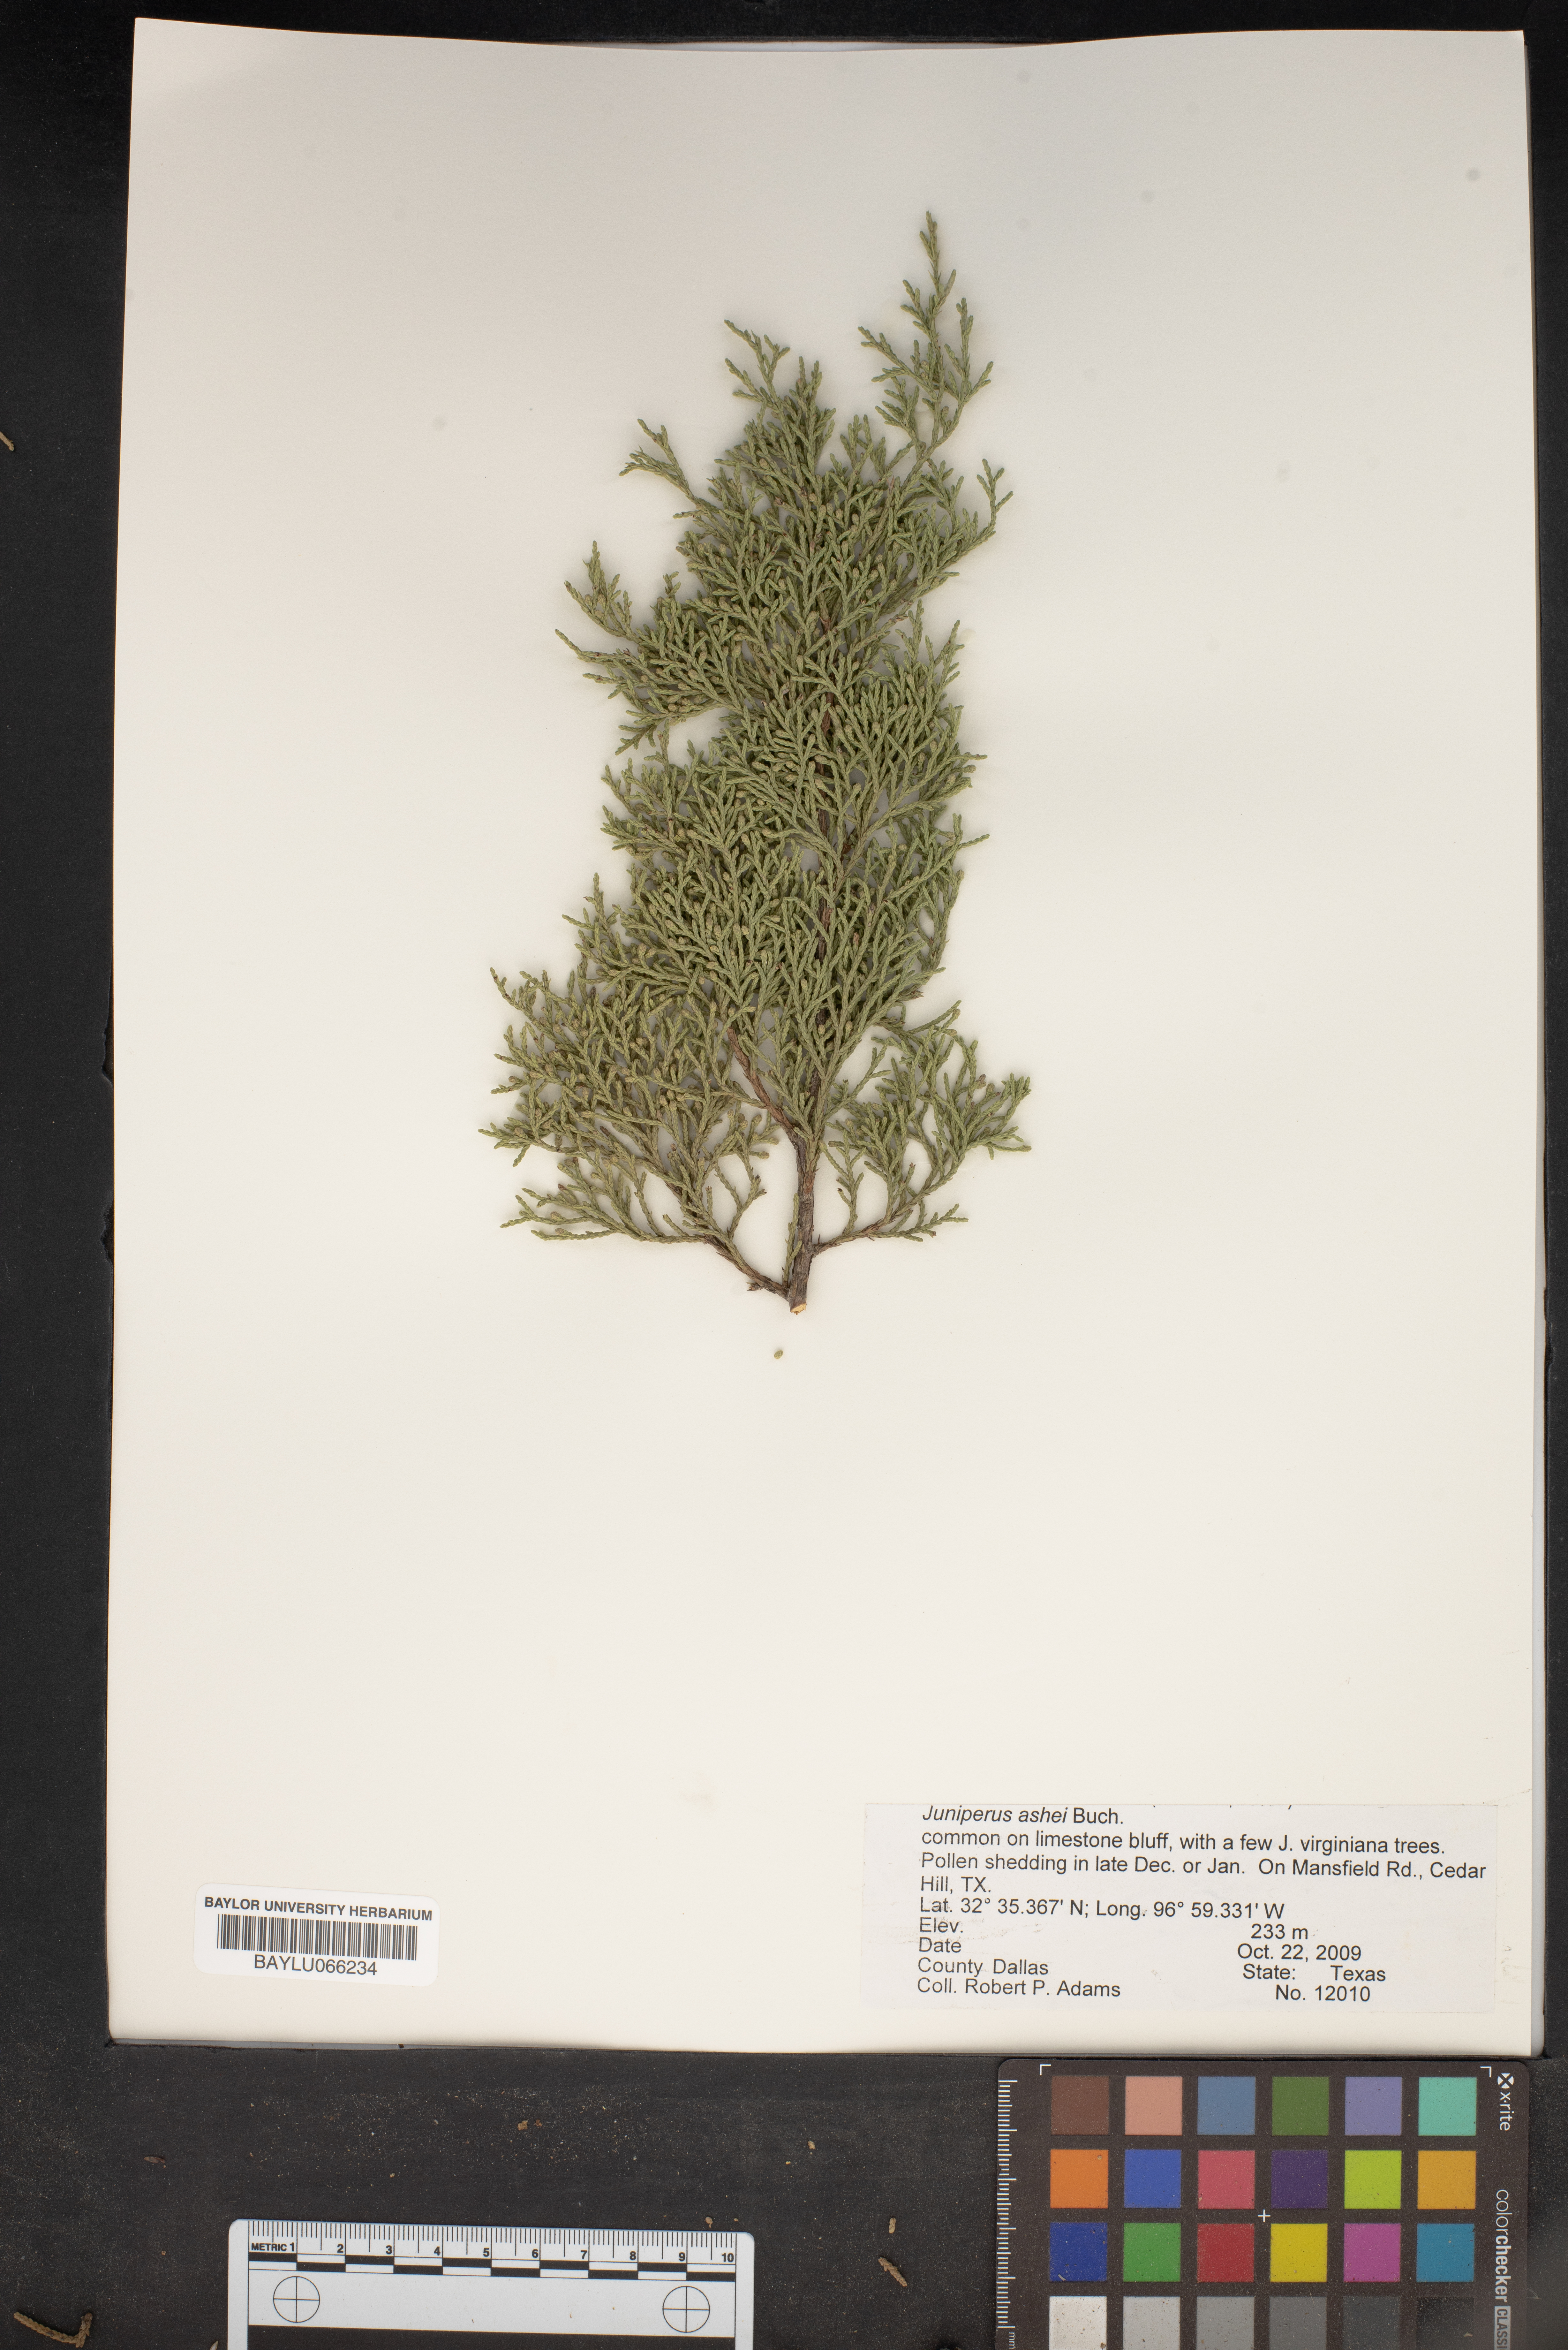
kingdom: Plantae
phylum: Tracheophyta
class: Pinopsida
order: Pinales
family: Cupressaceae
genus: Juniperus
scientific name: Juniperus ashei
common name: Mexican juniper
